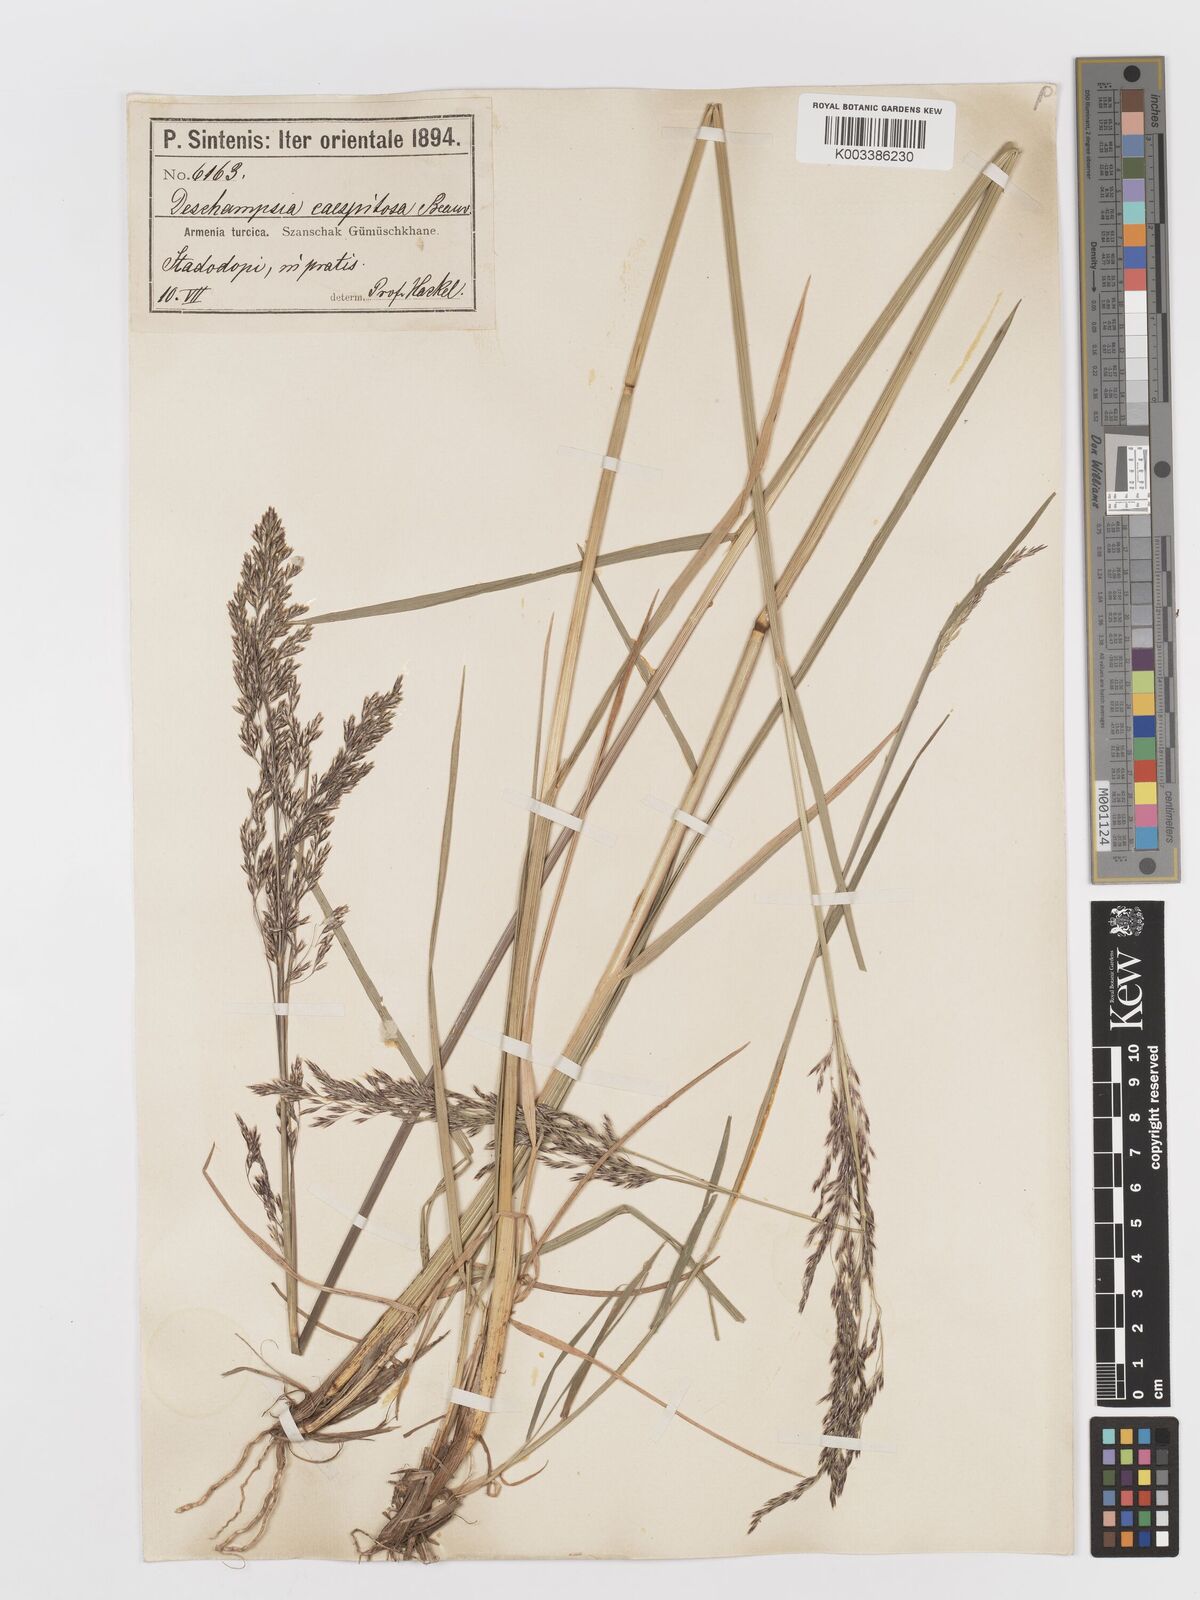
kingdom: Plantae
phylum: Tracheophyta
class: Liliopsida
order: Poales
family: Poaceae
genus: Deschampsia
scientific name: Deschampsia cespitosa
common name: Tufted hair-grass
